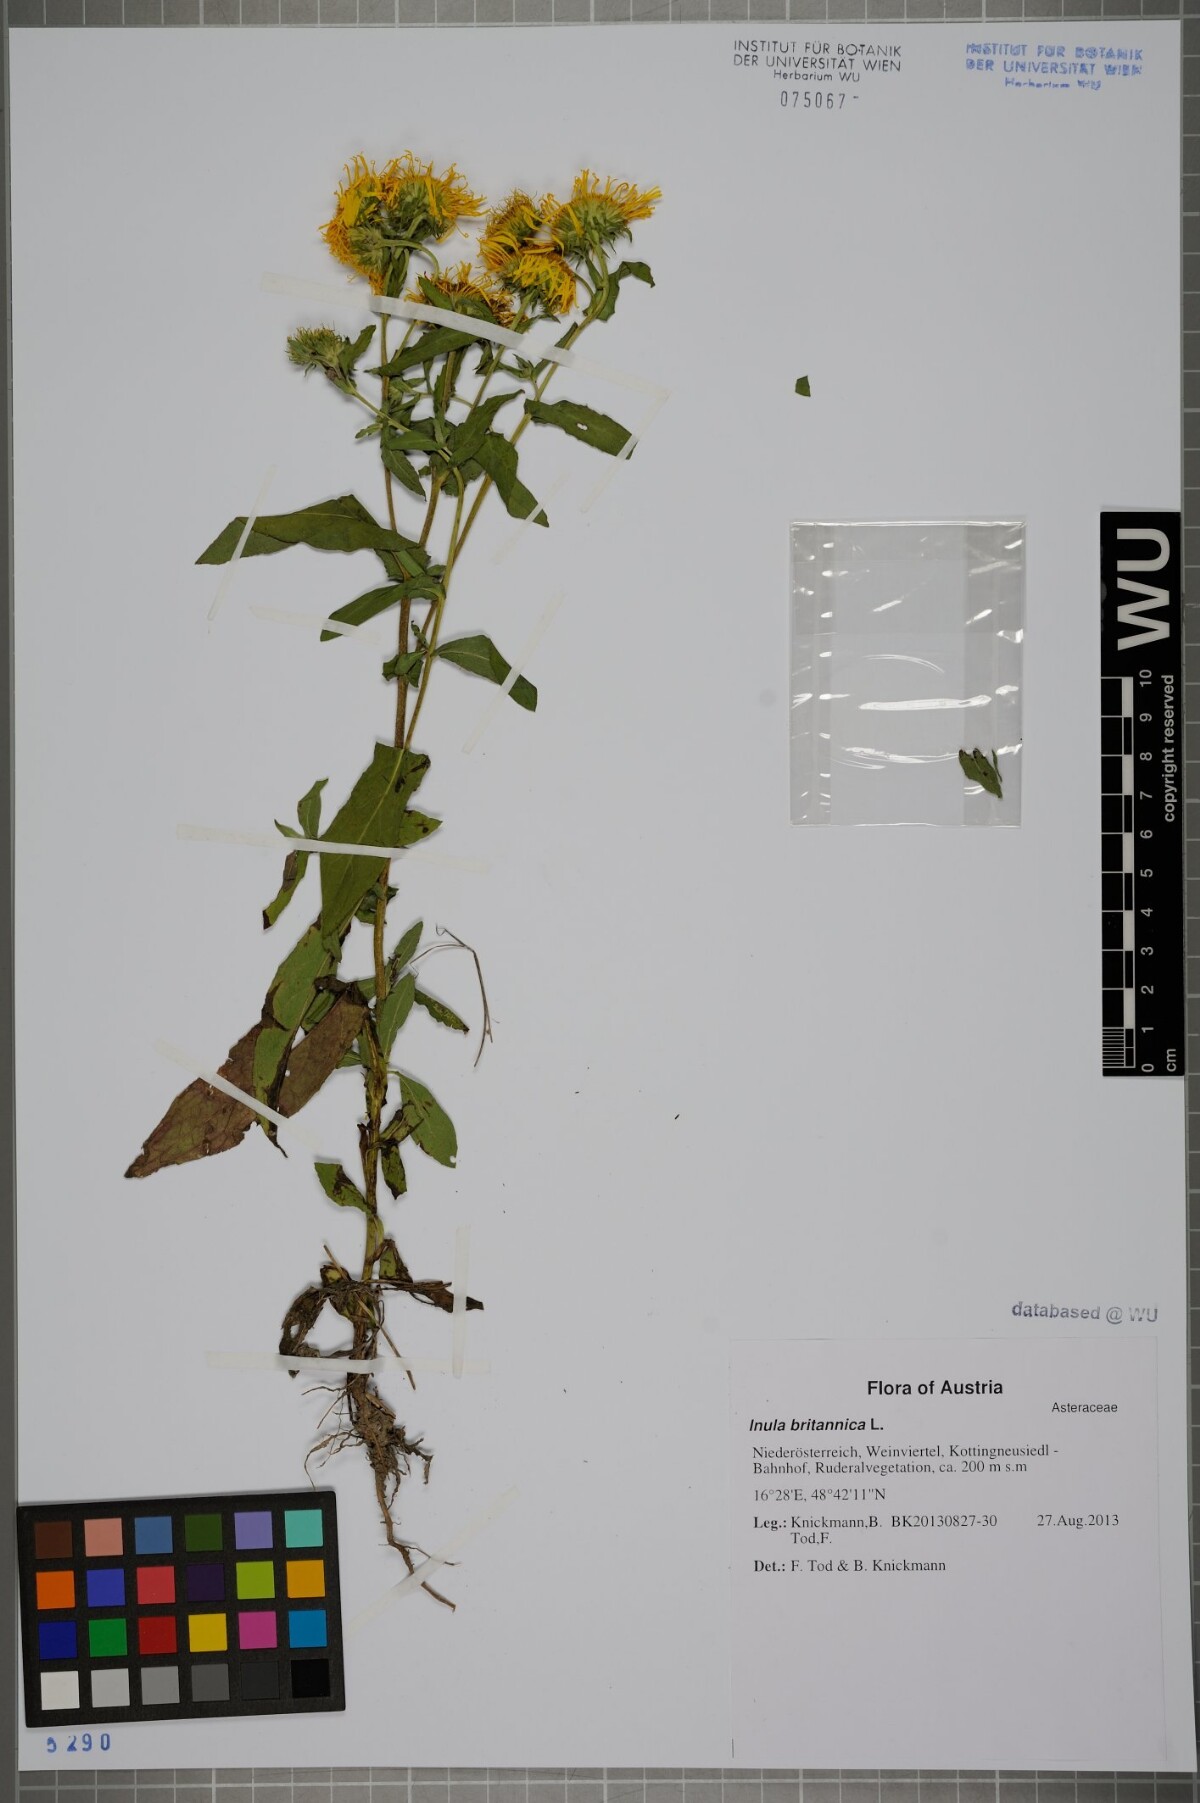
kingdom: Plantae
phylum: Tracheophyta
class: Magnoliopsida
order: Asterales
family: Asteraceae
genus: Pentanema
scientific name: Pentanema britannicum
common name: British elecampane
